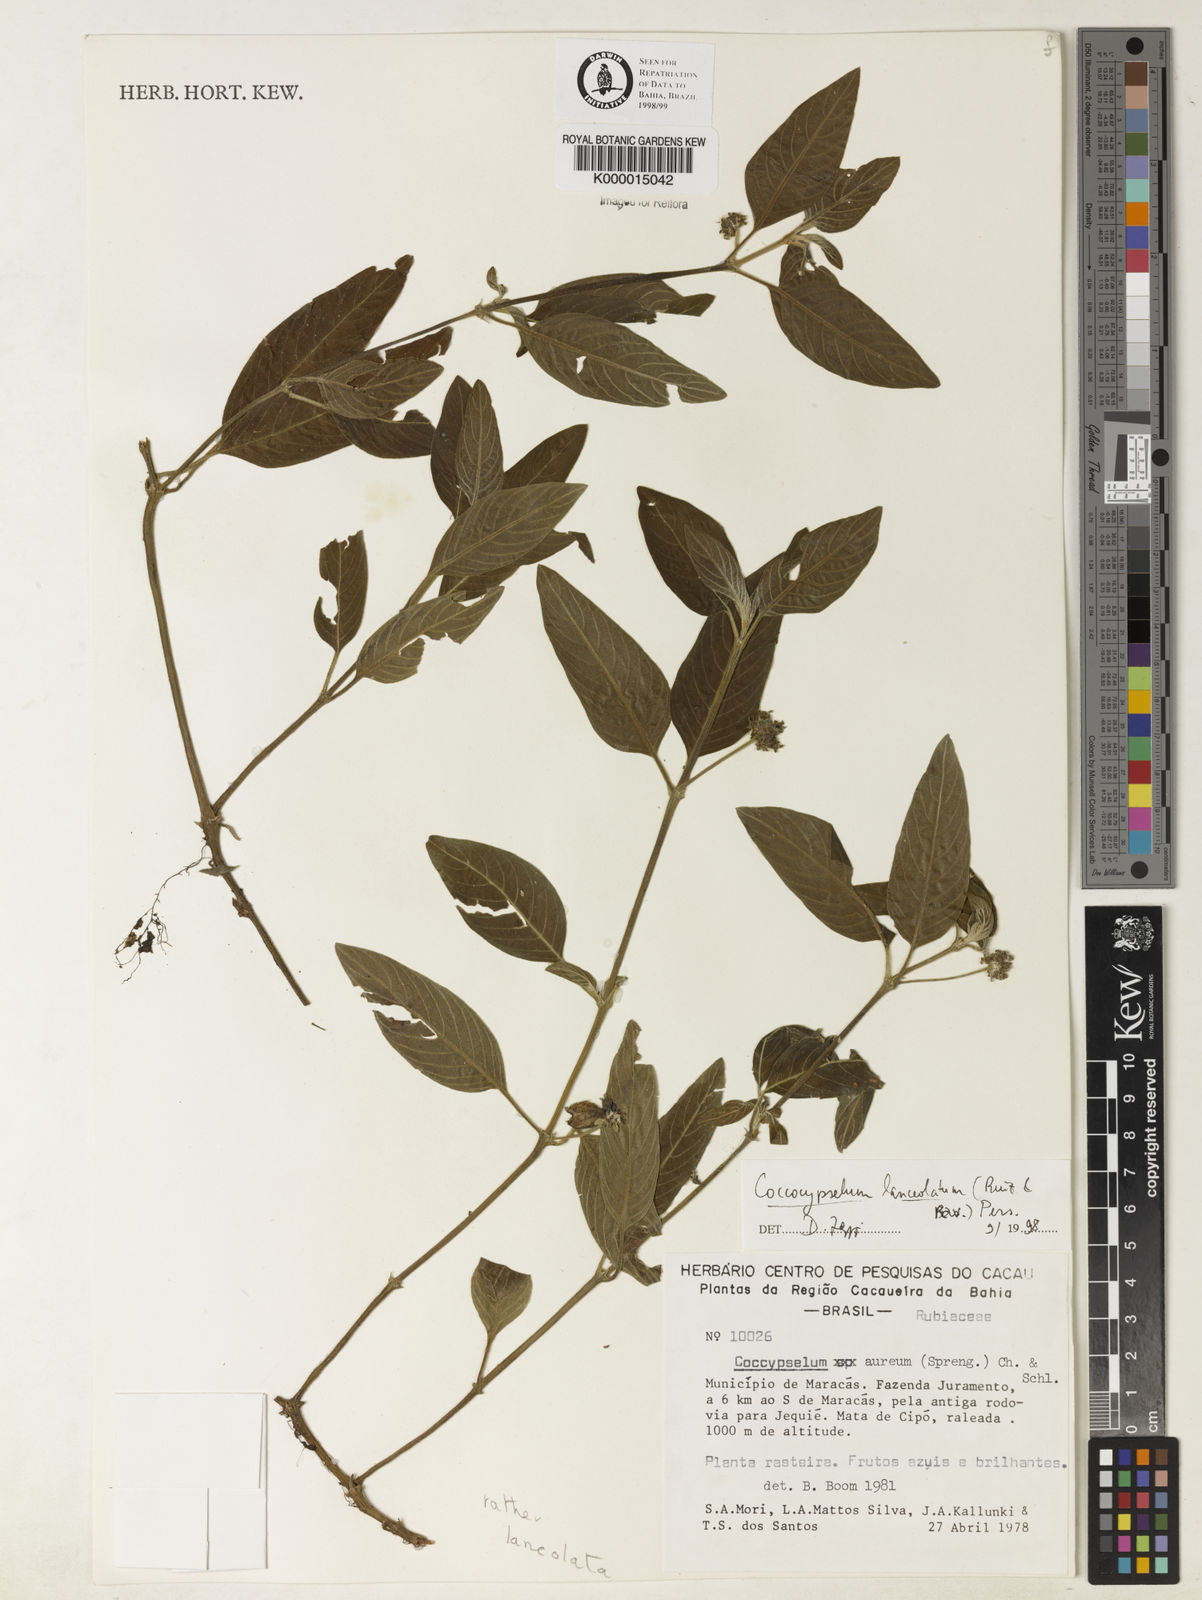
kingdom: Plantae
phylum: Tracheophyta
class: Magnoliopsida
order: Gentianales
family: Rubiaceae
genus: Coccocypselum
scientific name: Coccocypselum lanceolatum
